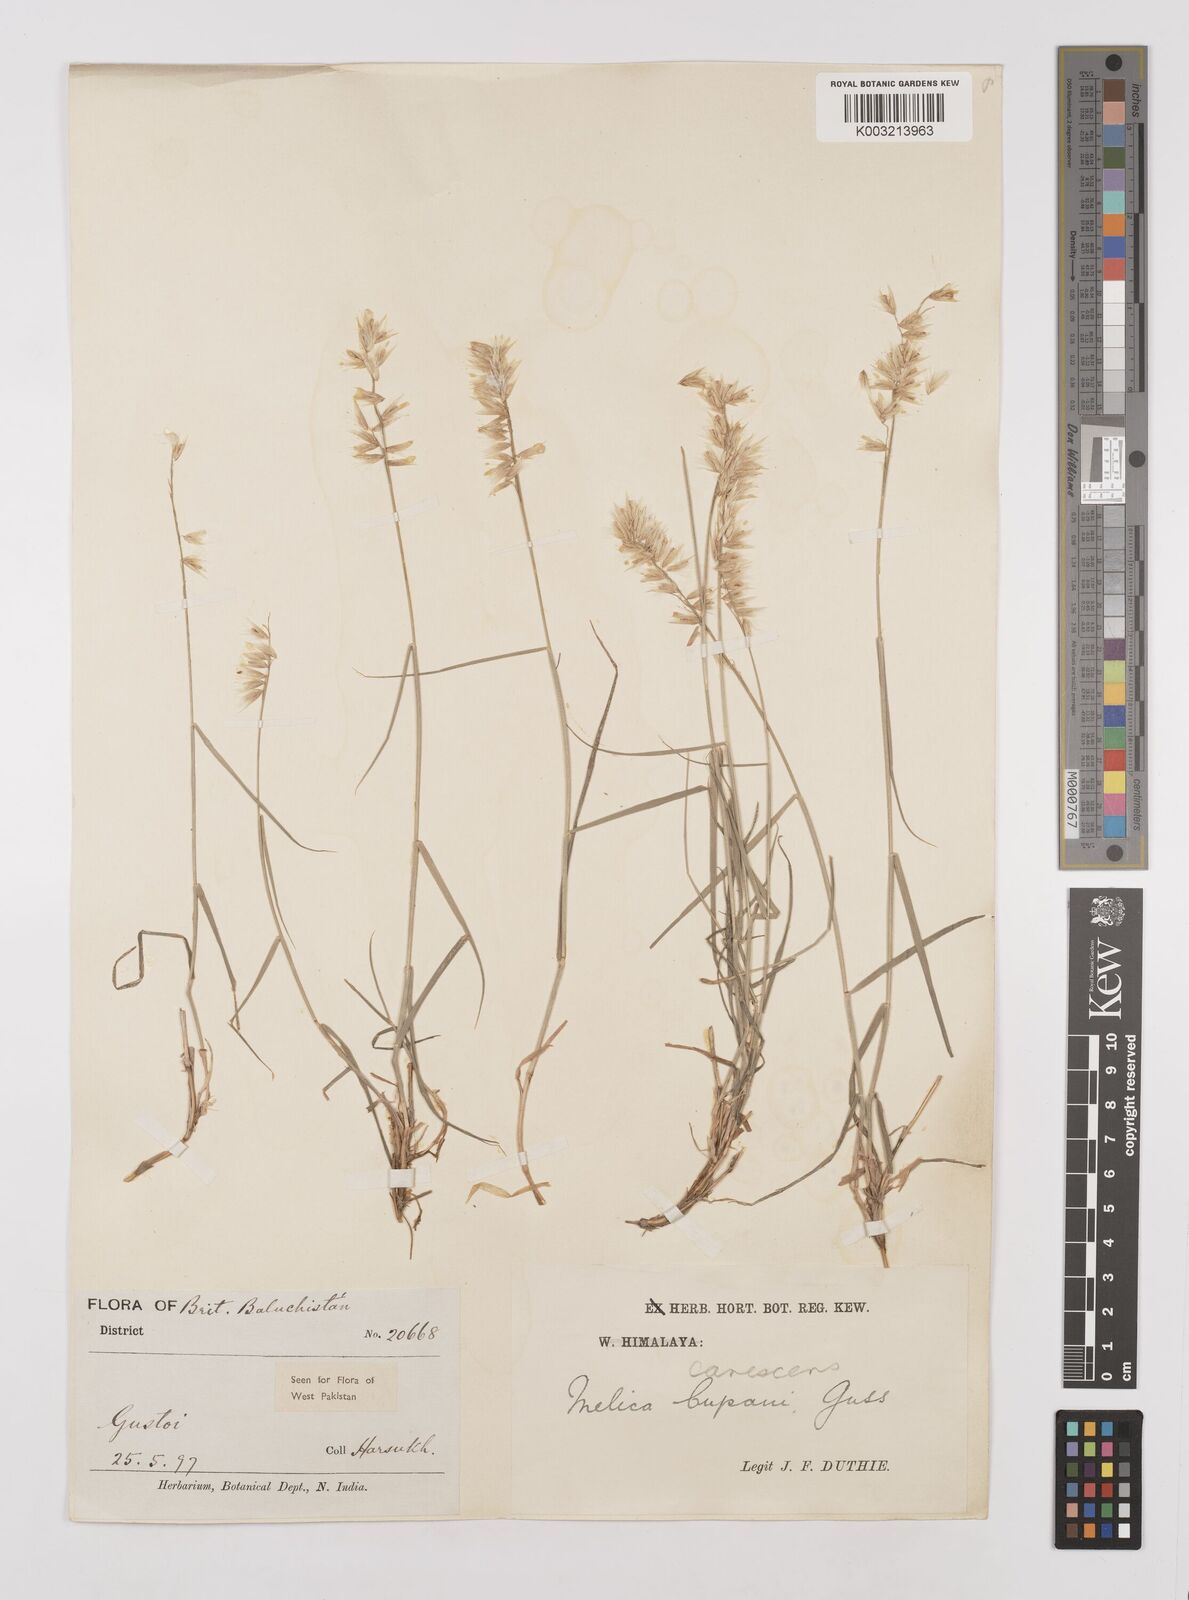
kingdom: Plantae
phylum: Tracheophyta
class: Liliopsida
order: Poales
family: Poaceae
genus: Melica
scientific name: Melica persica
